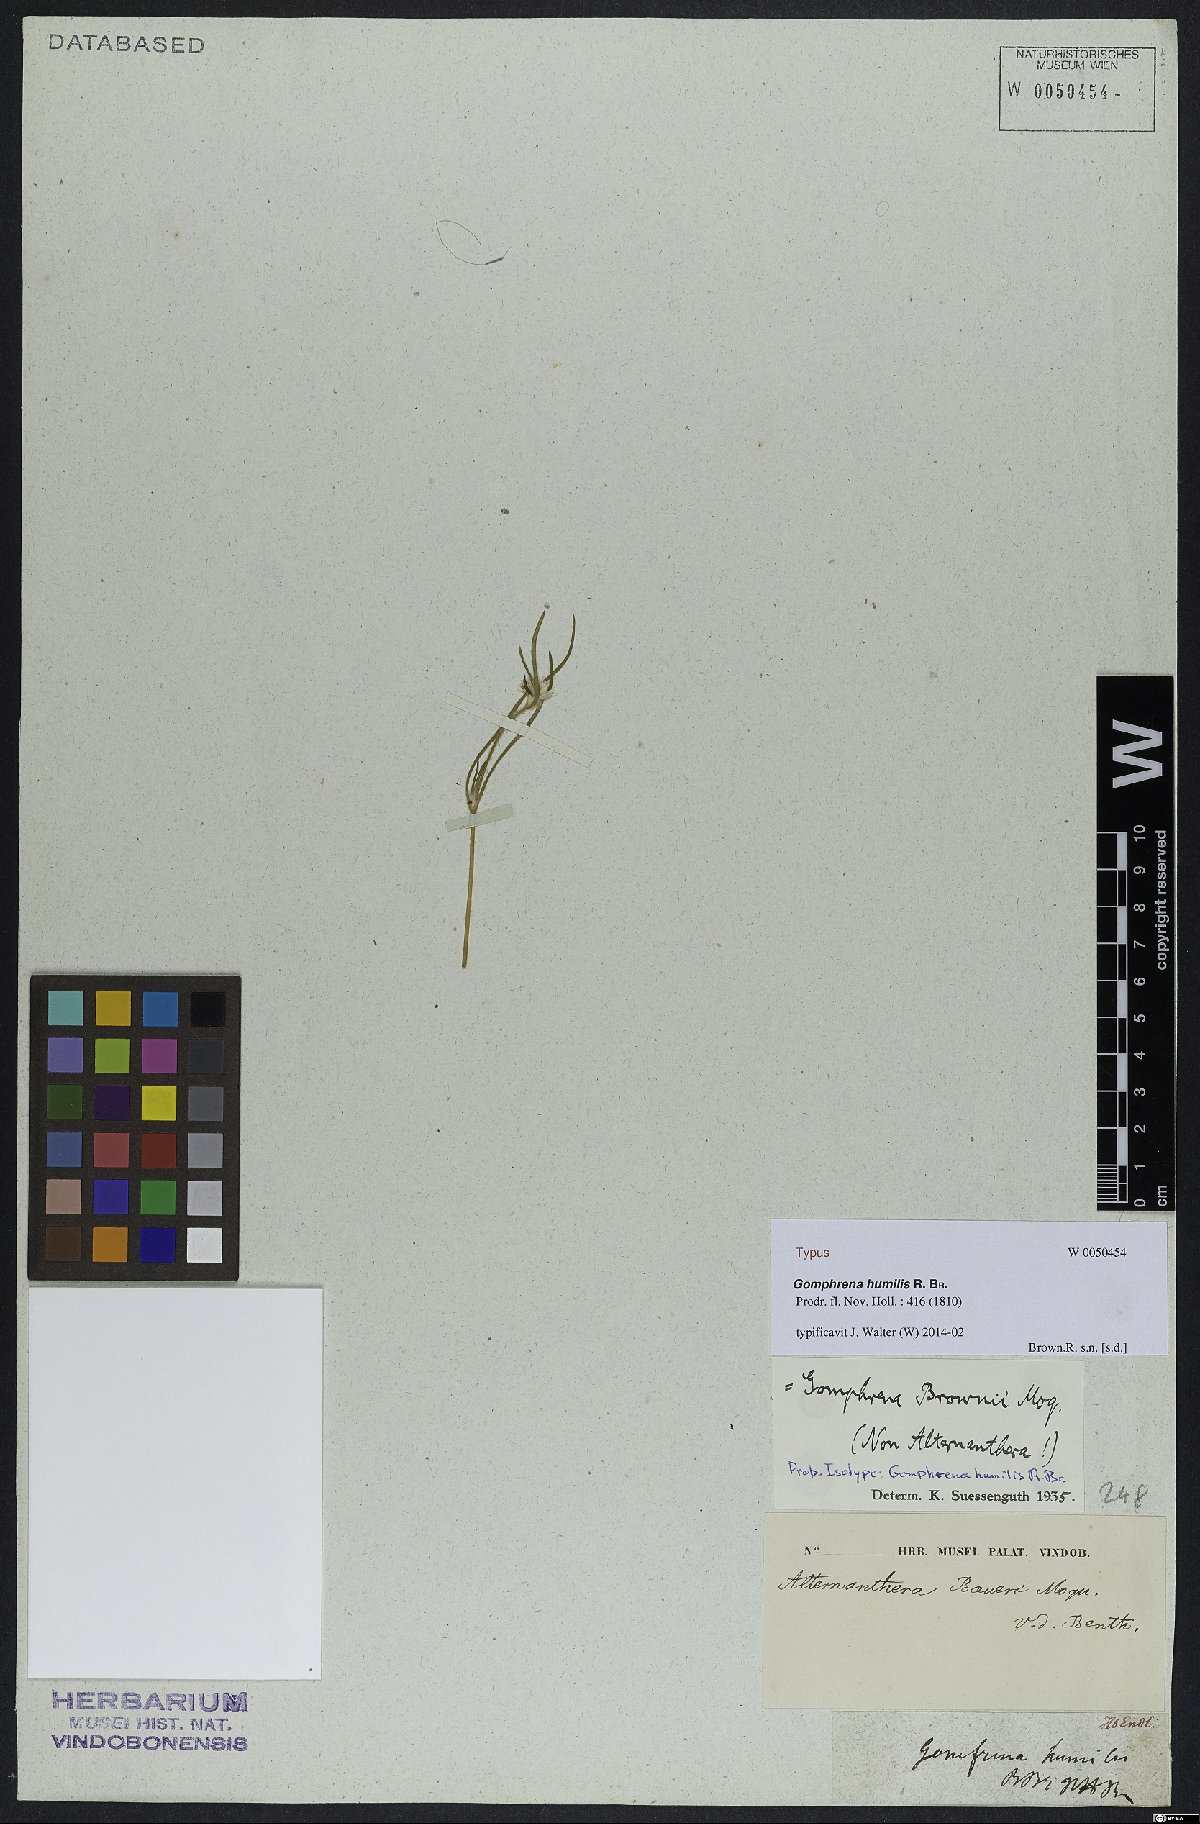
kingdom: Plantae
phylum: Tracheophyta
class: Magnoliopsida
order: Caryophyllales
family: Amaranthaceae
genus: Gomphrena
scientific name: Gomphrena humilis
